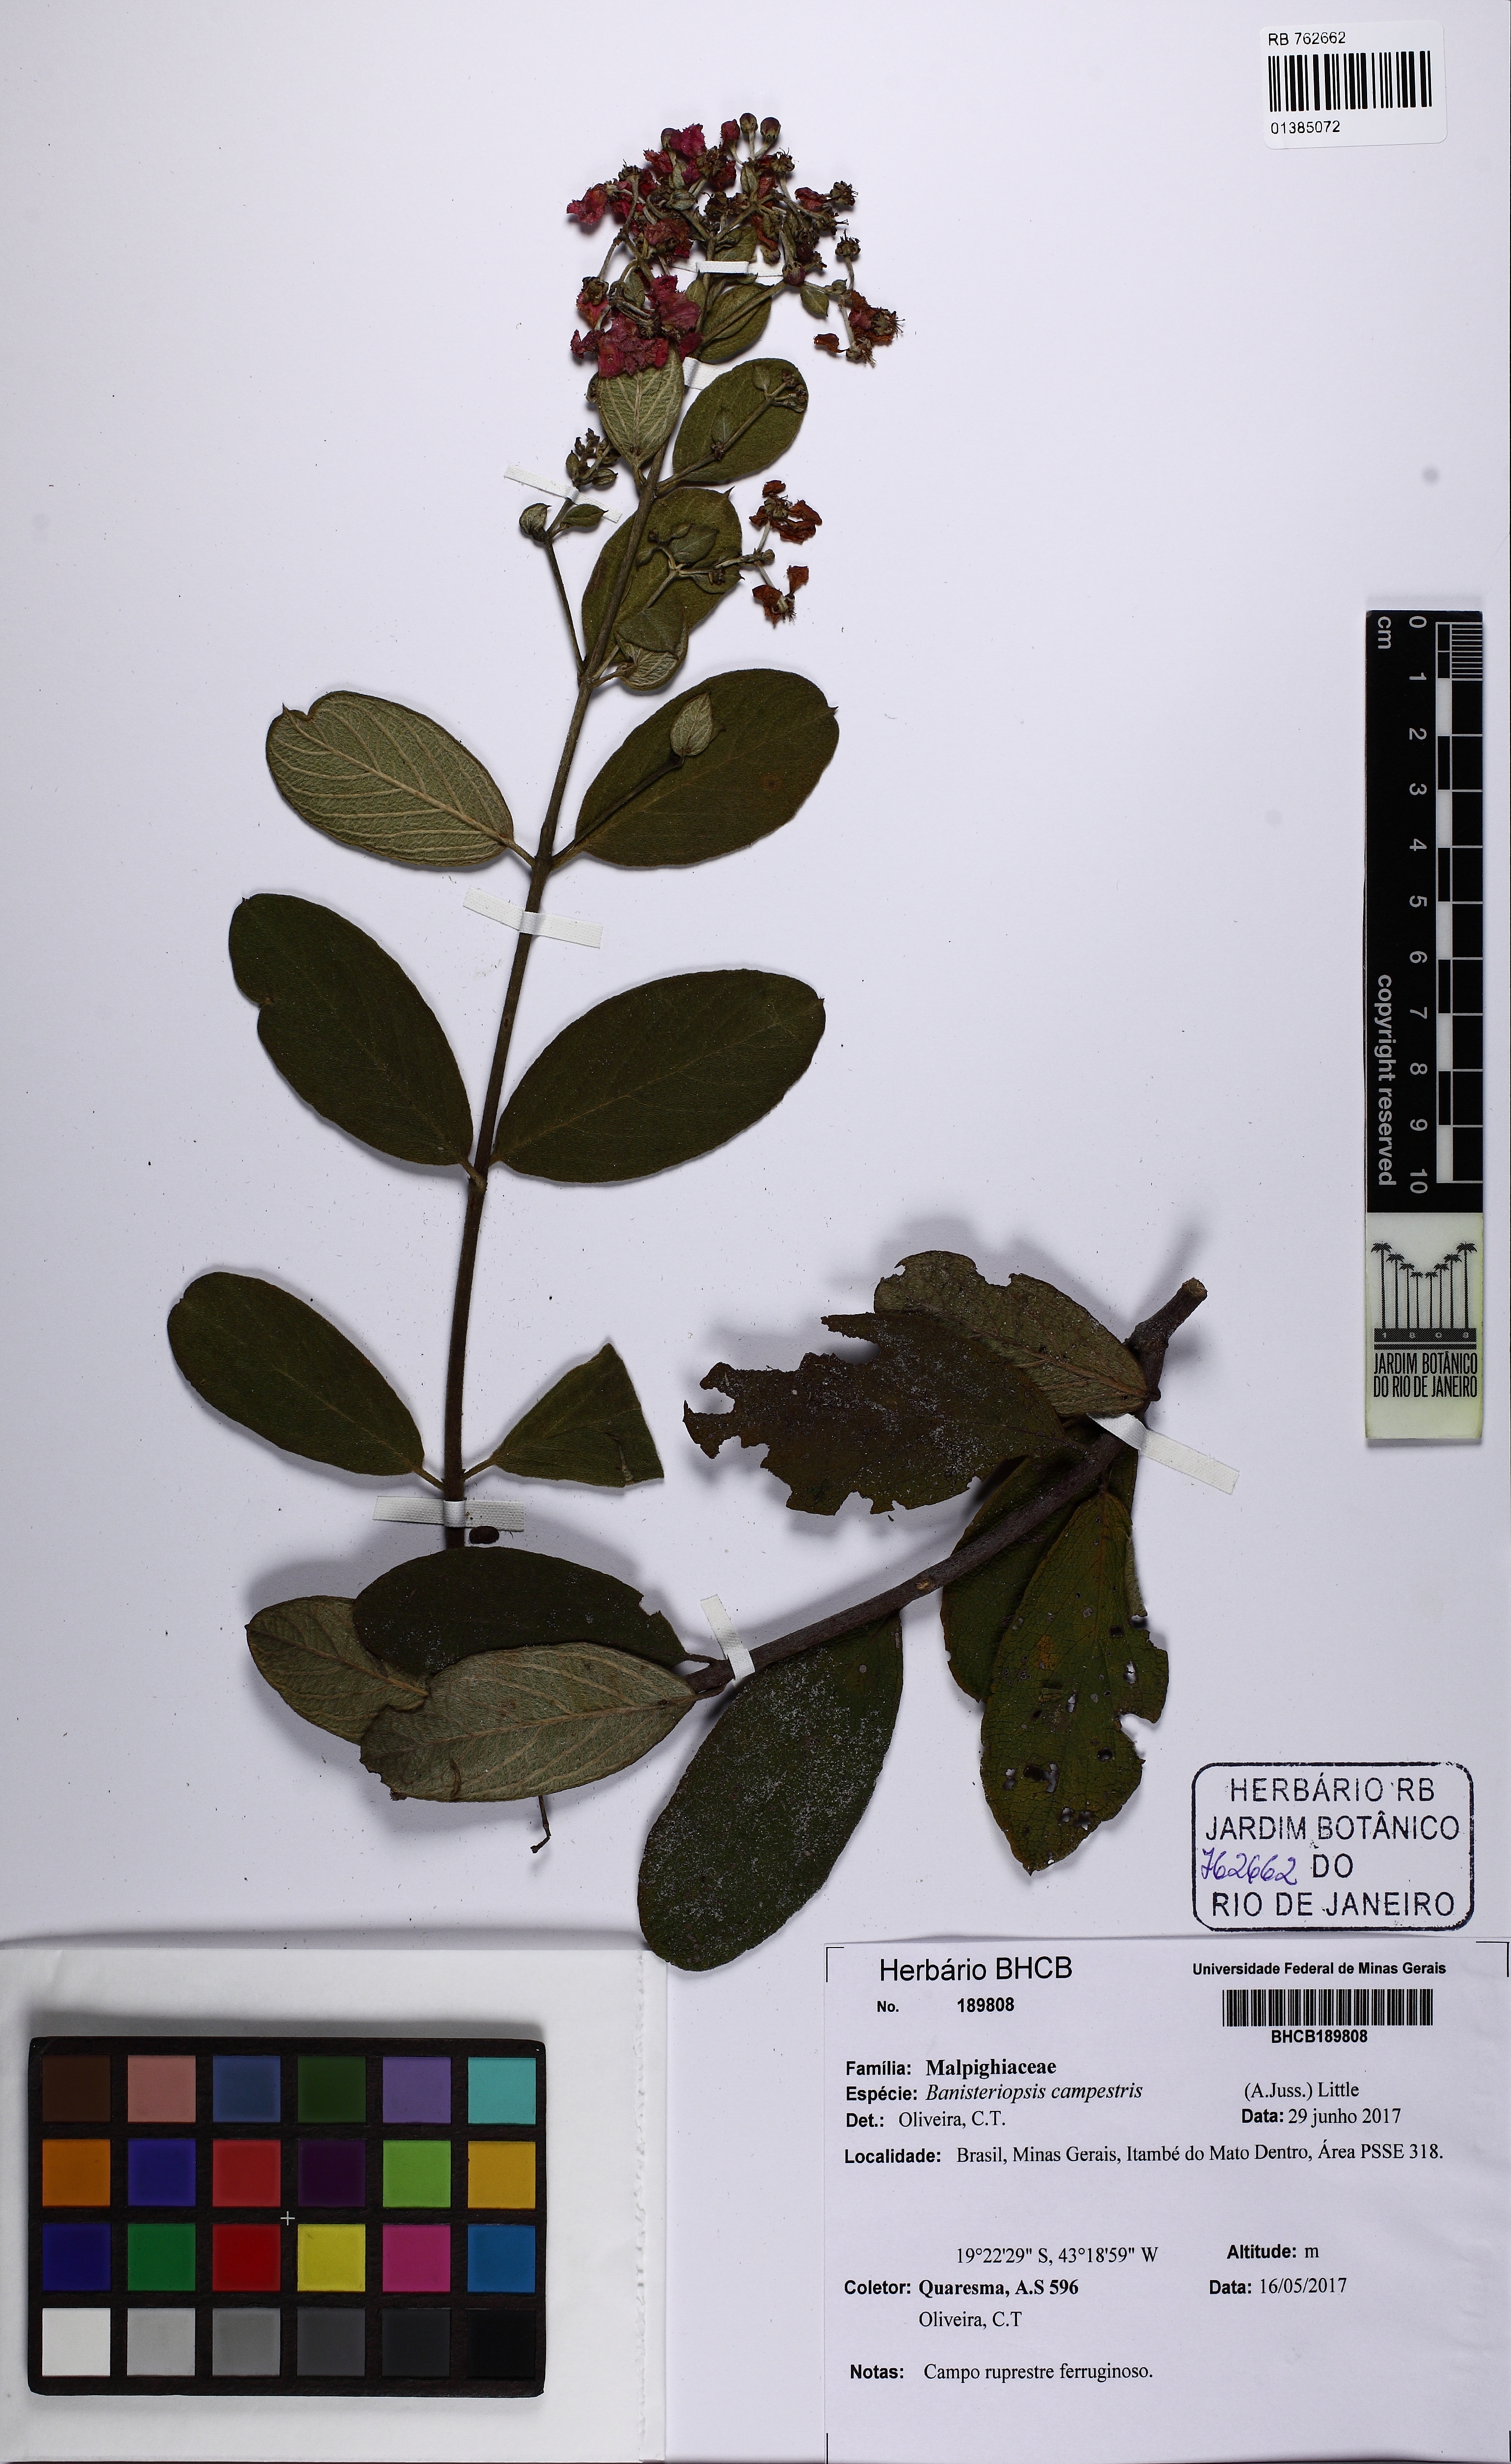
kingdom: Plantae
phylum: Tracheophyta
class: Magnoliopsida
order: Malpighiales
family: Malpighiaceae
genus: Banisteriopsis
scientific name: Banisteriopsis campestris
